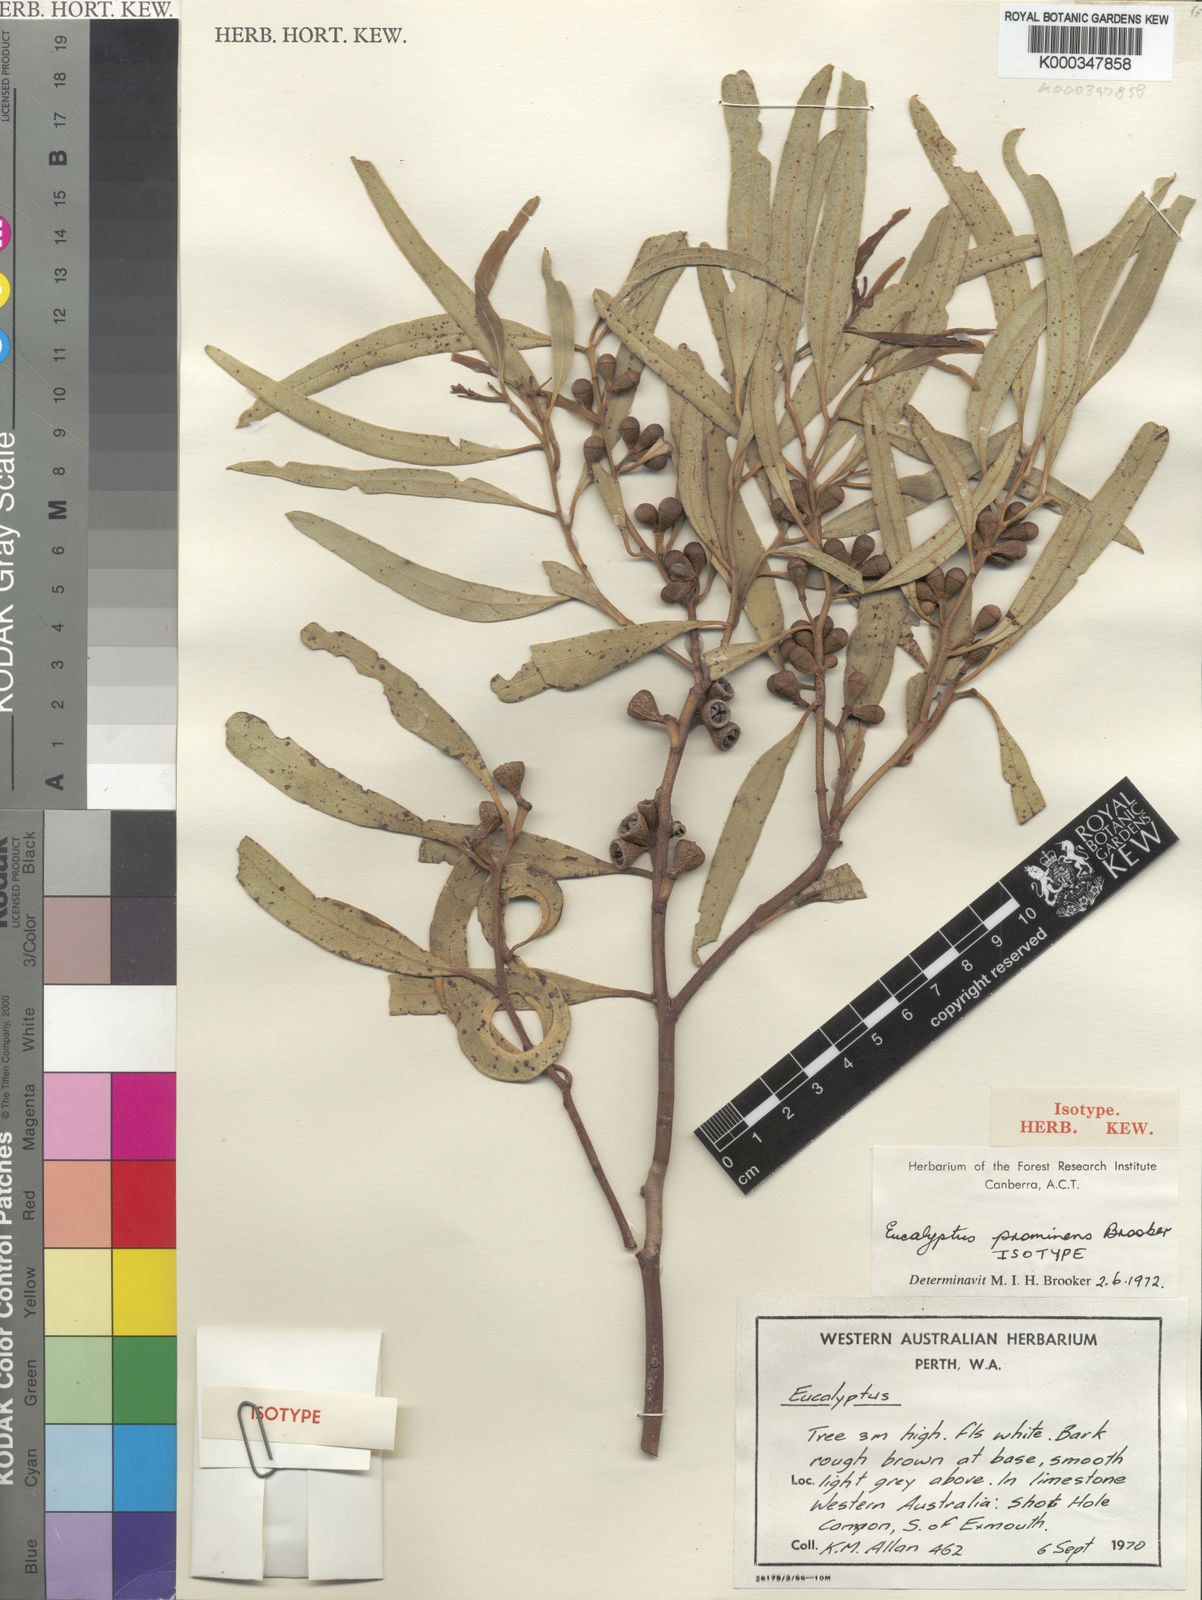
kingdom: Plantae
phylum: Tracheophyta
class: Magnoliopsida
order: Myrtales
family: Myrtaceae
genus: Eucalyptus
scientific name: Eucalyptus prominens
